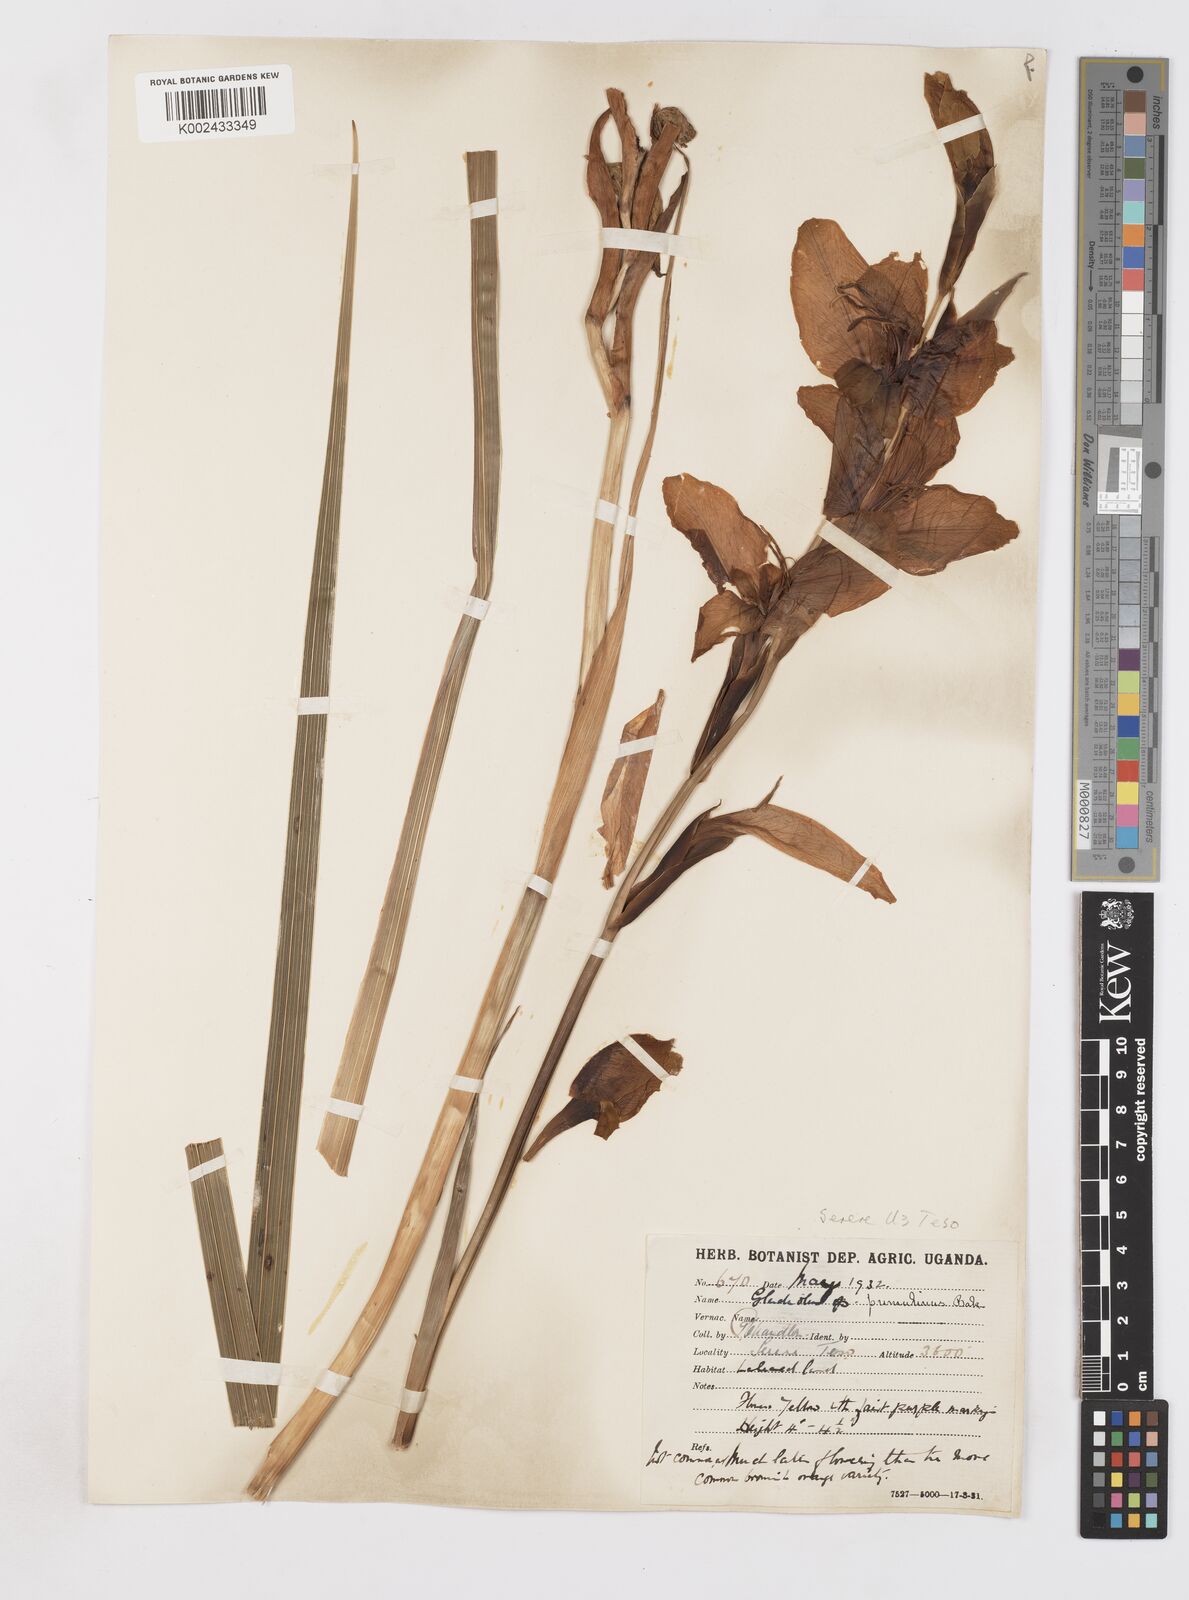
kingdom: Plantae
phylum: Tracheophyta
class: Liliopsida
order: Asparagales
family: Iridaceae
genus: Gladiolus
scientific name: Gladiolus dalenii
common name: Cornflag
